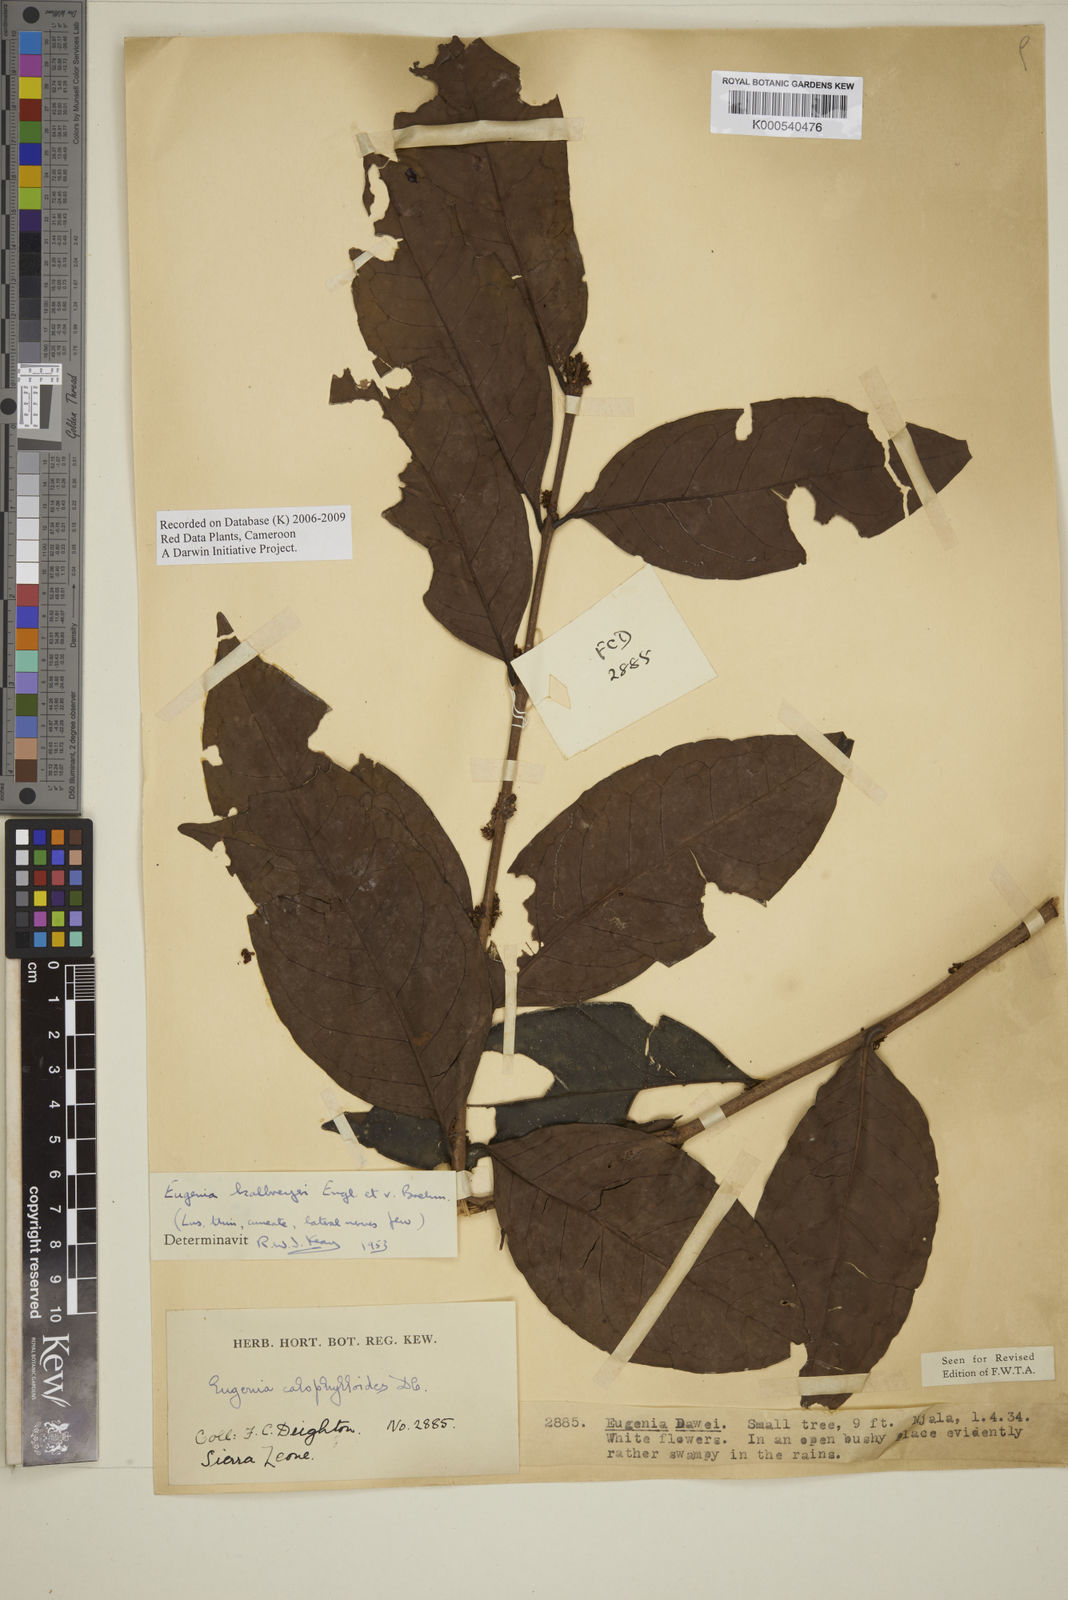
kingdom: Plantae
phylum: Tracheophyta
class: Magnoliopsida
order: Myrtales
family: Myrtaceae
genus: Eugenia
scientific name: Eugenia kalbreyeri
